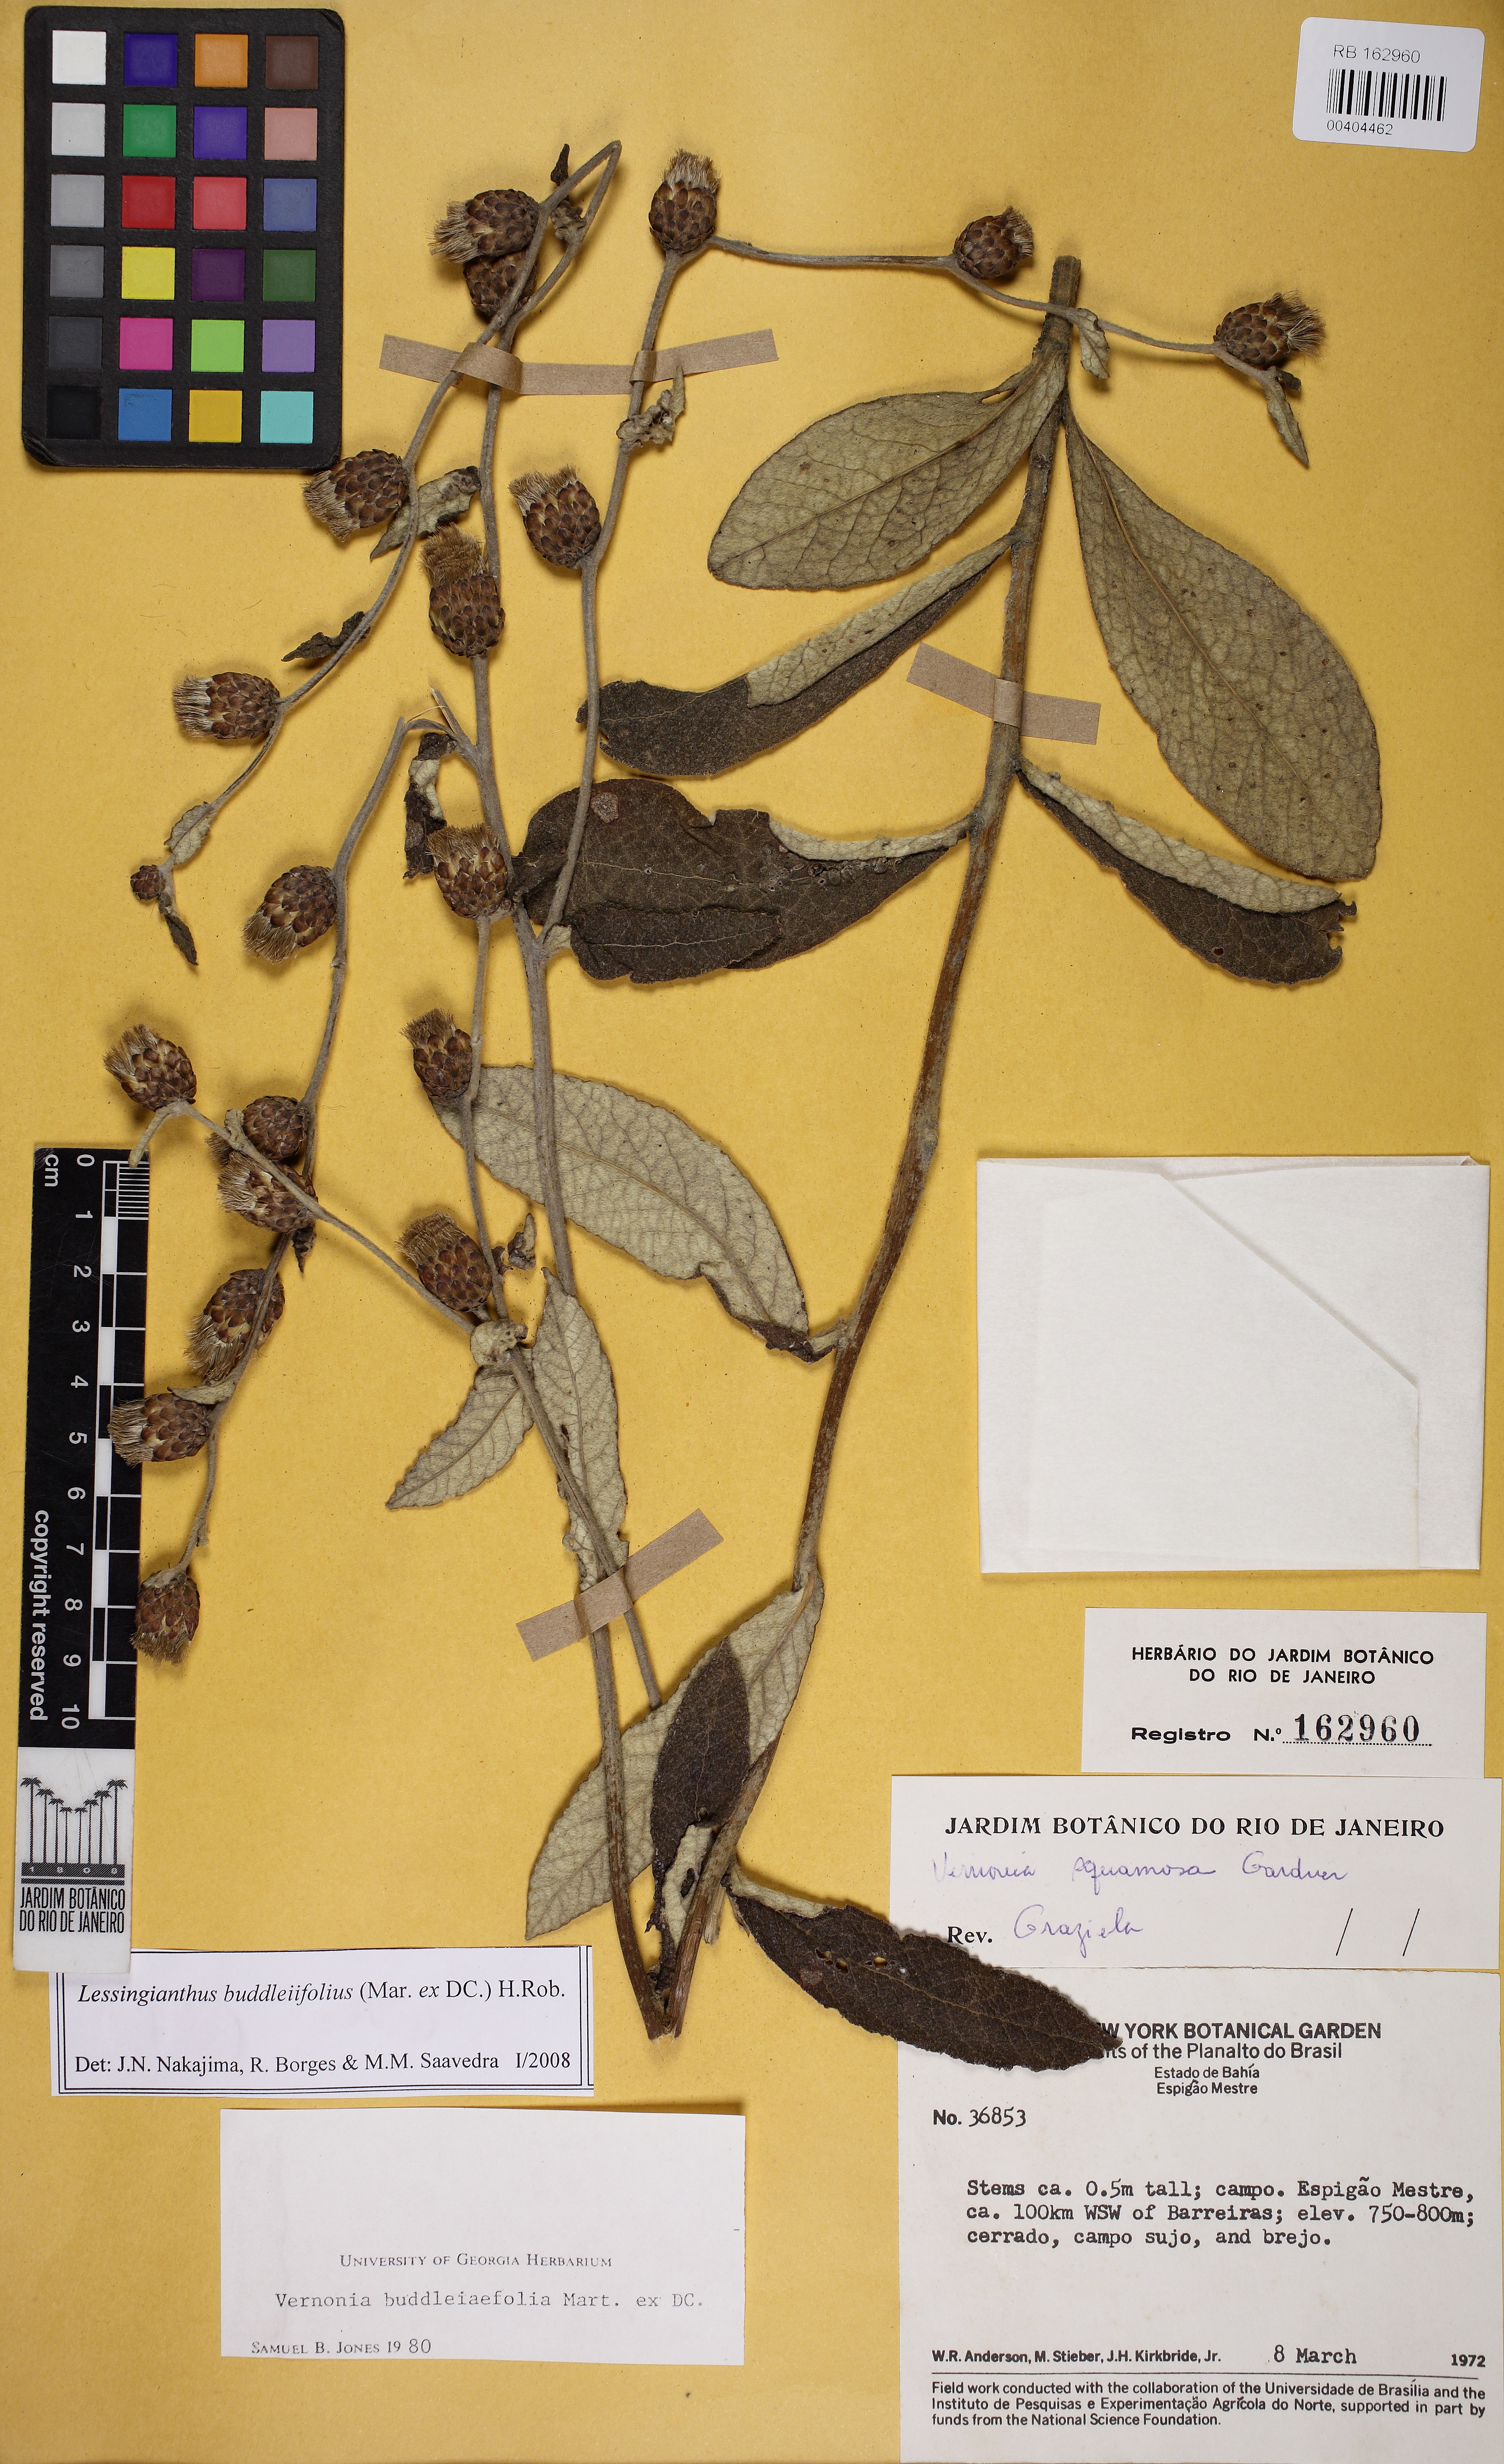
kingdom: Plantae
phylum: Tracheophyta
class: Magnoliopsida
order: Asterales
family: Asteraceae
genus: Lessingianthus
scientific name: Lessingianthus buddlejifolius
